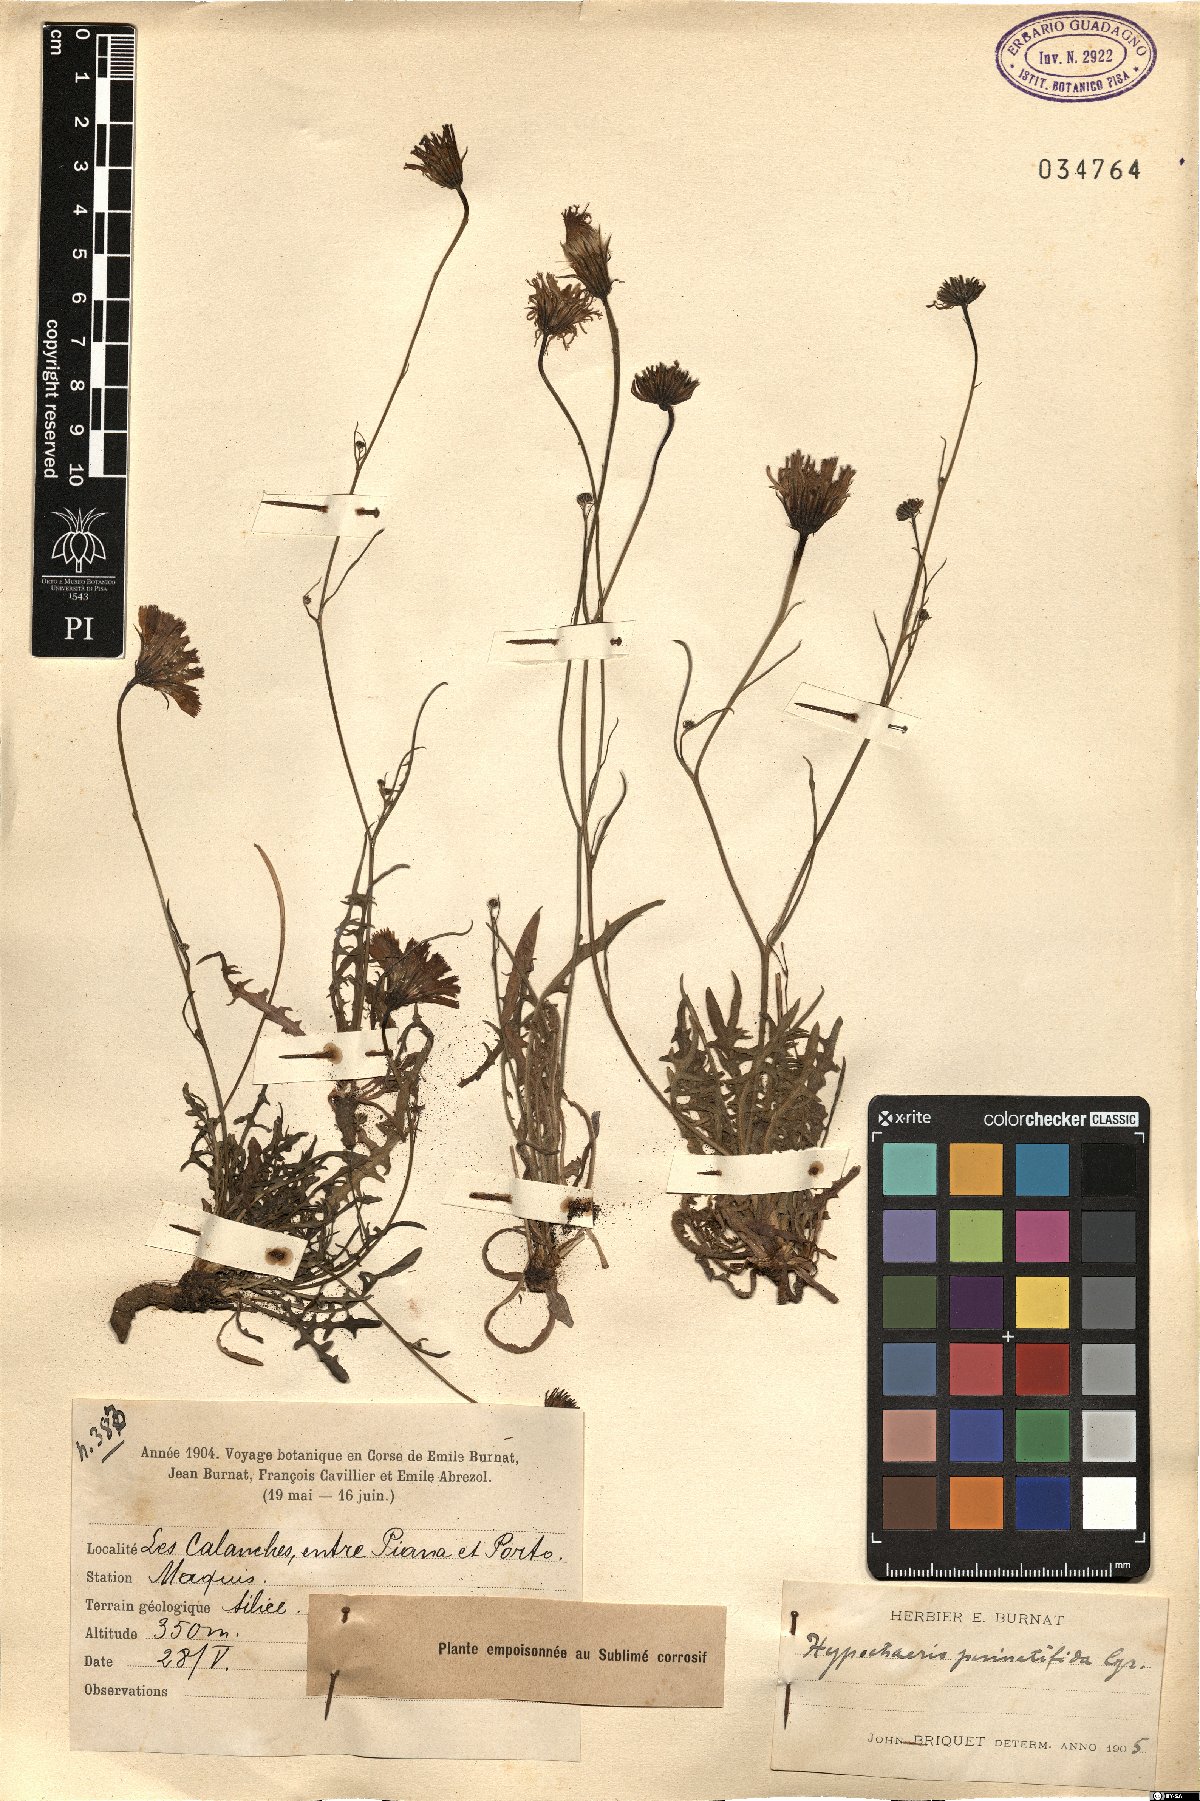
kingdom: Plantae
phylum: Tracheophyta
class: Magnoliopsida
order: Asterales
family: Asteraceae
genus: Hypochaeris
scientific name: Hypochaeris cretensis
